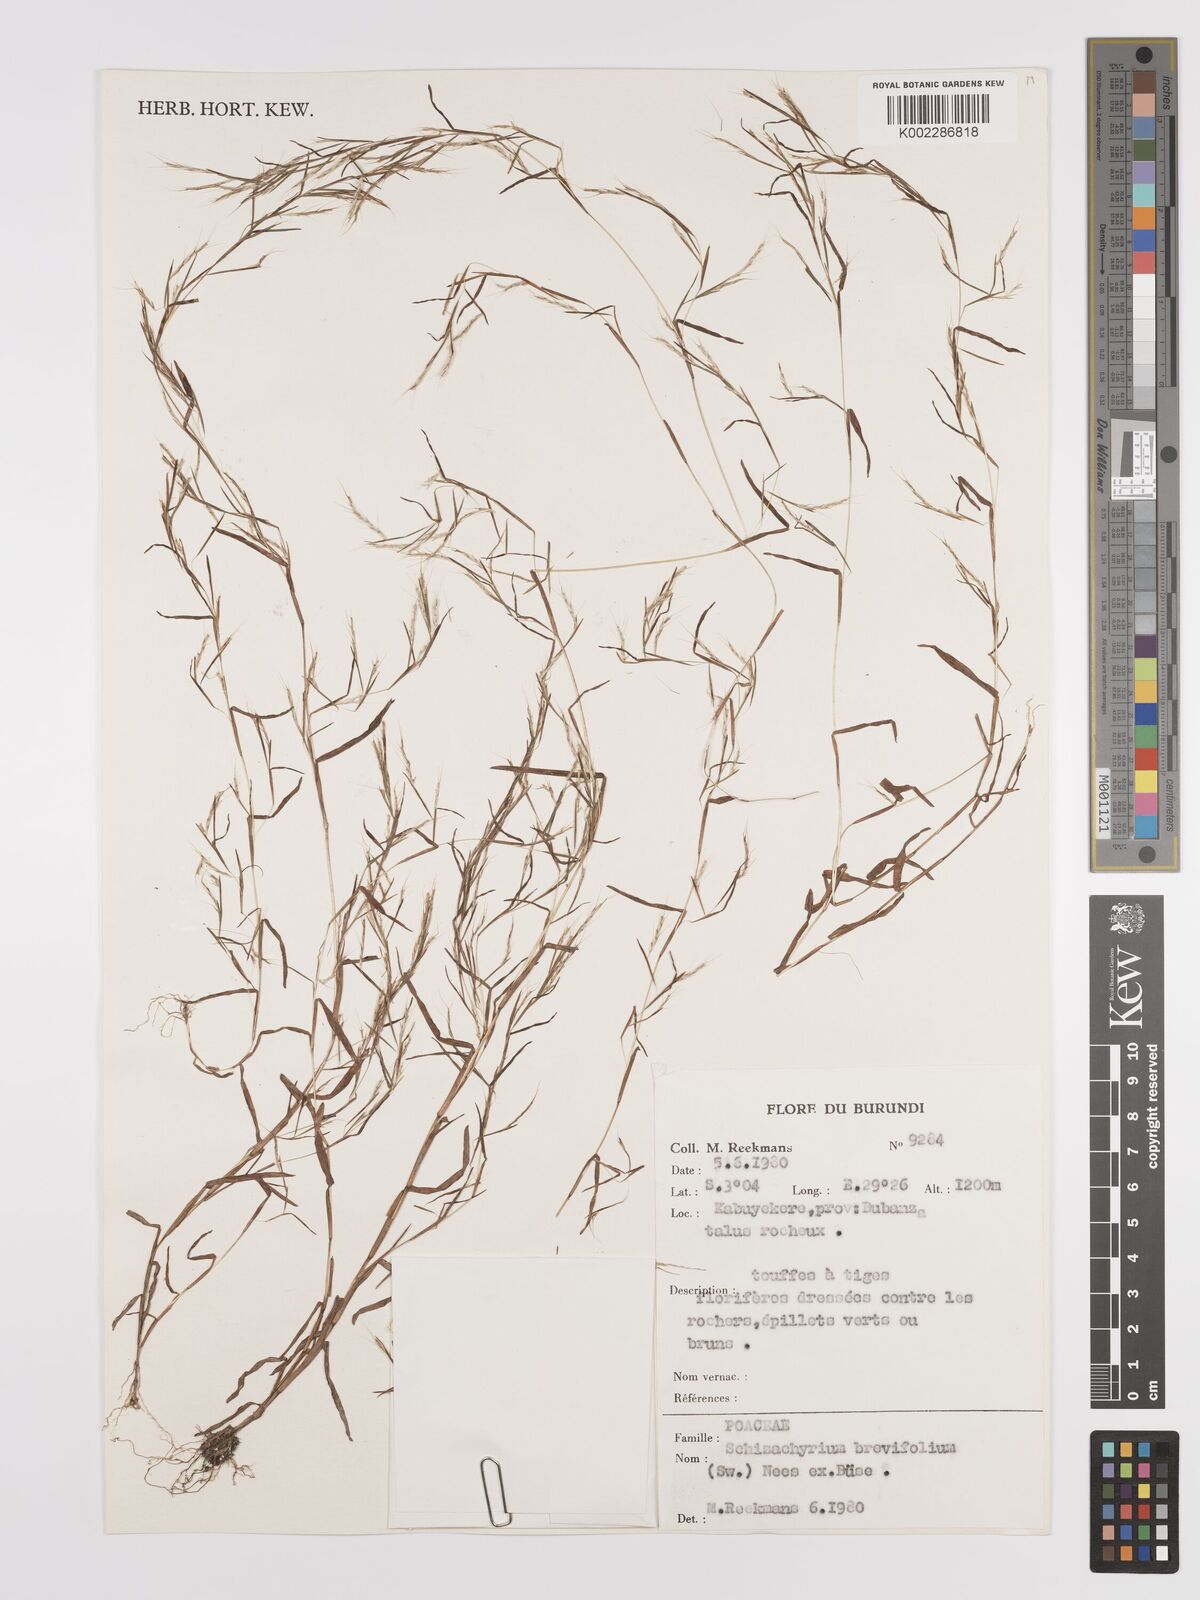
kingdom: Plantae
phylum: Tracheophyta
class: Liliopsida
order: Poales
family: Poaceae
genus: Schizachyrium
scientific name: Schizachyrium brevifolium
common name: Serillo dulce
